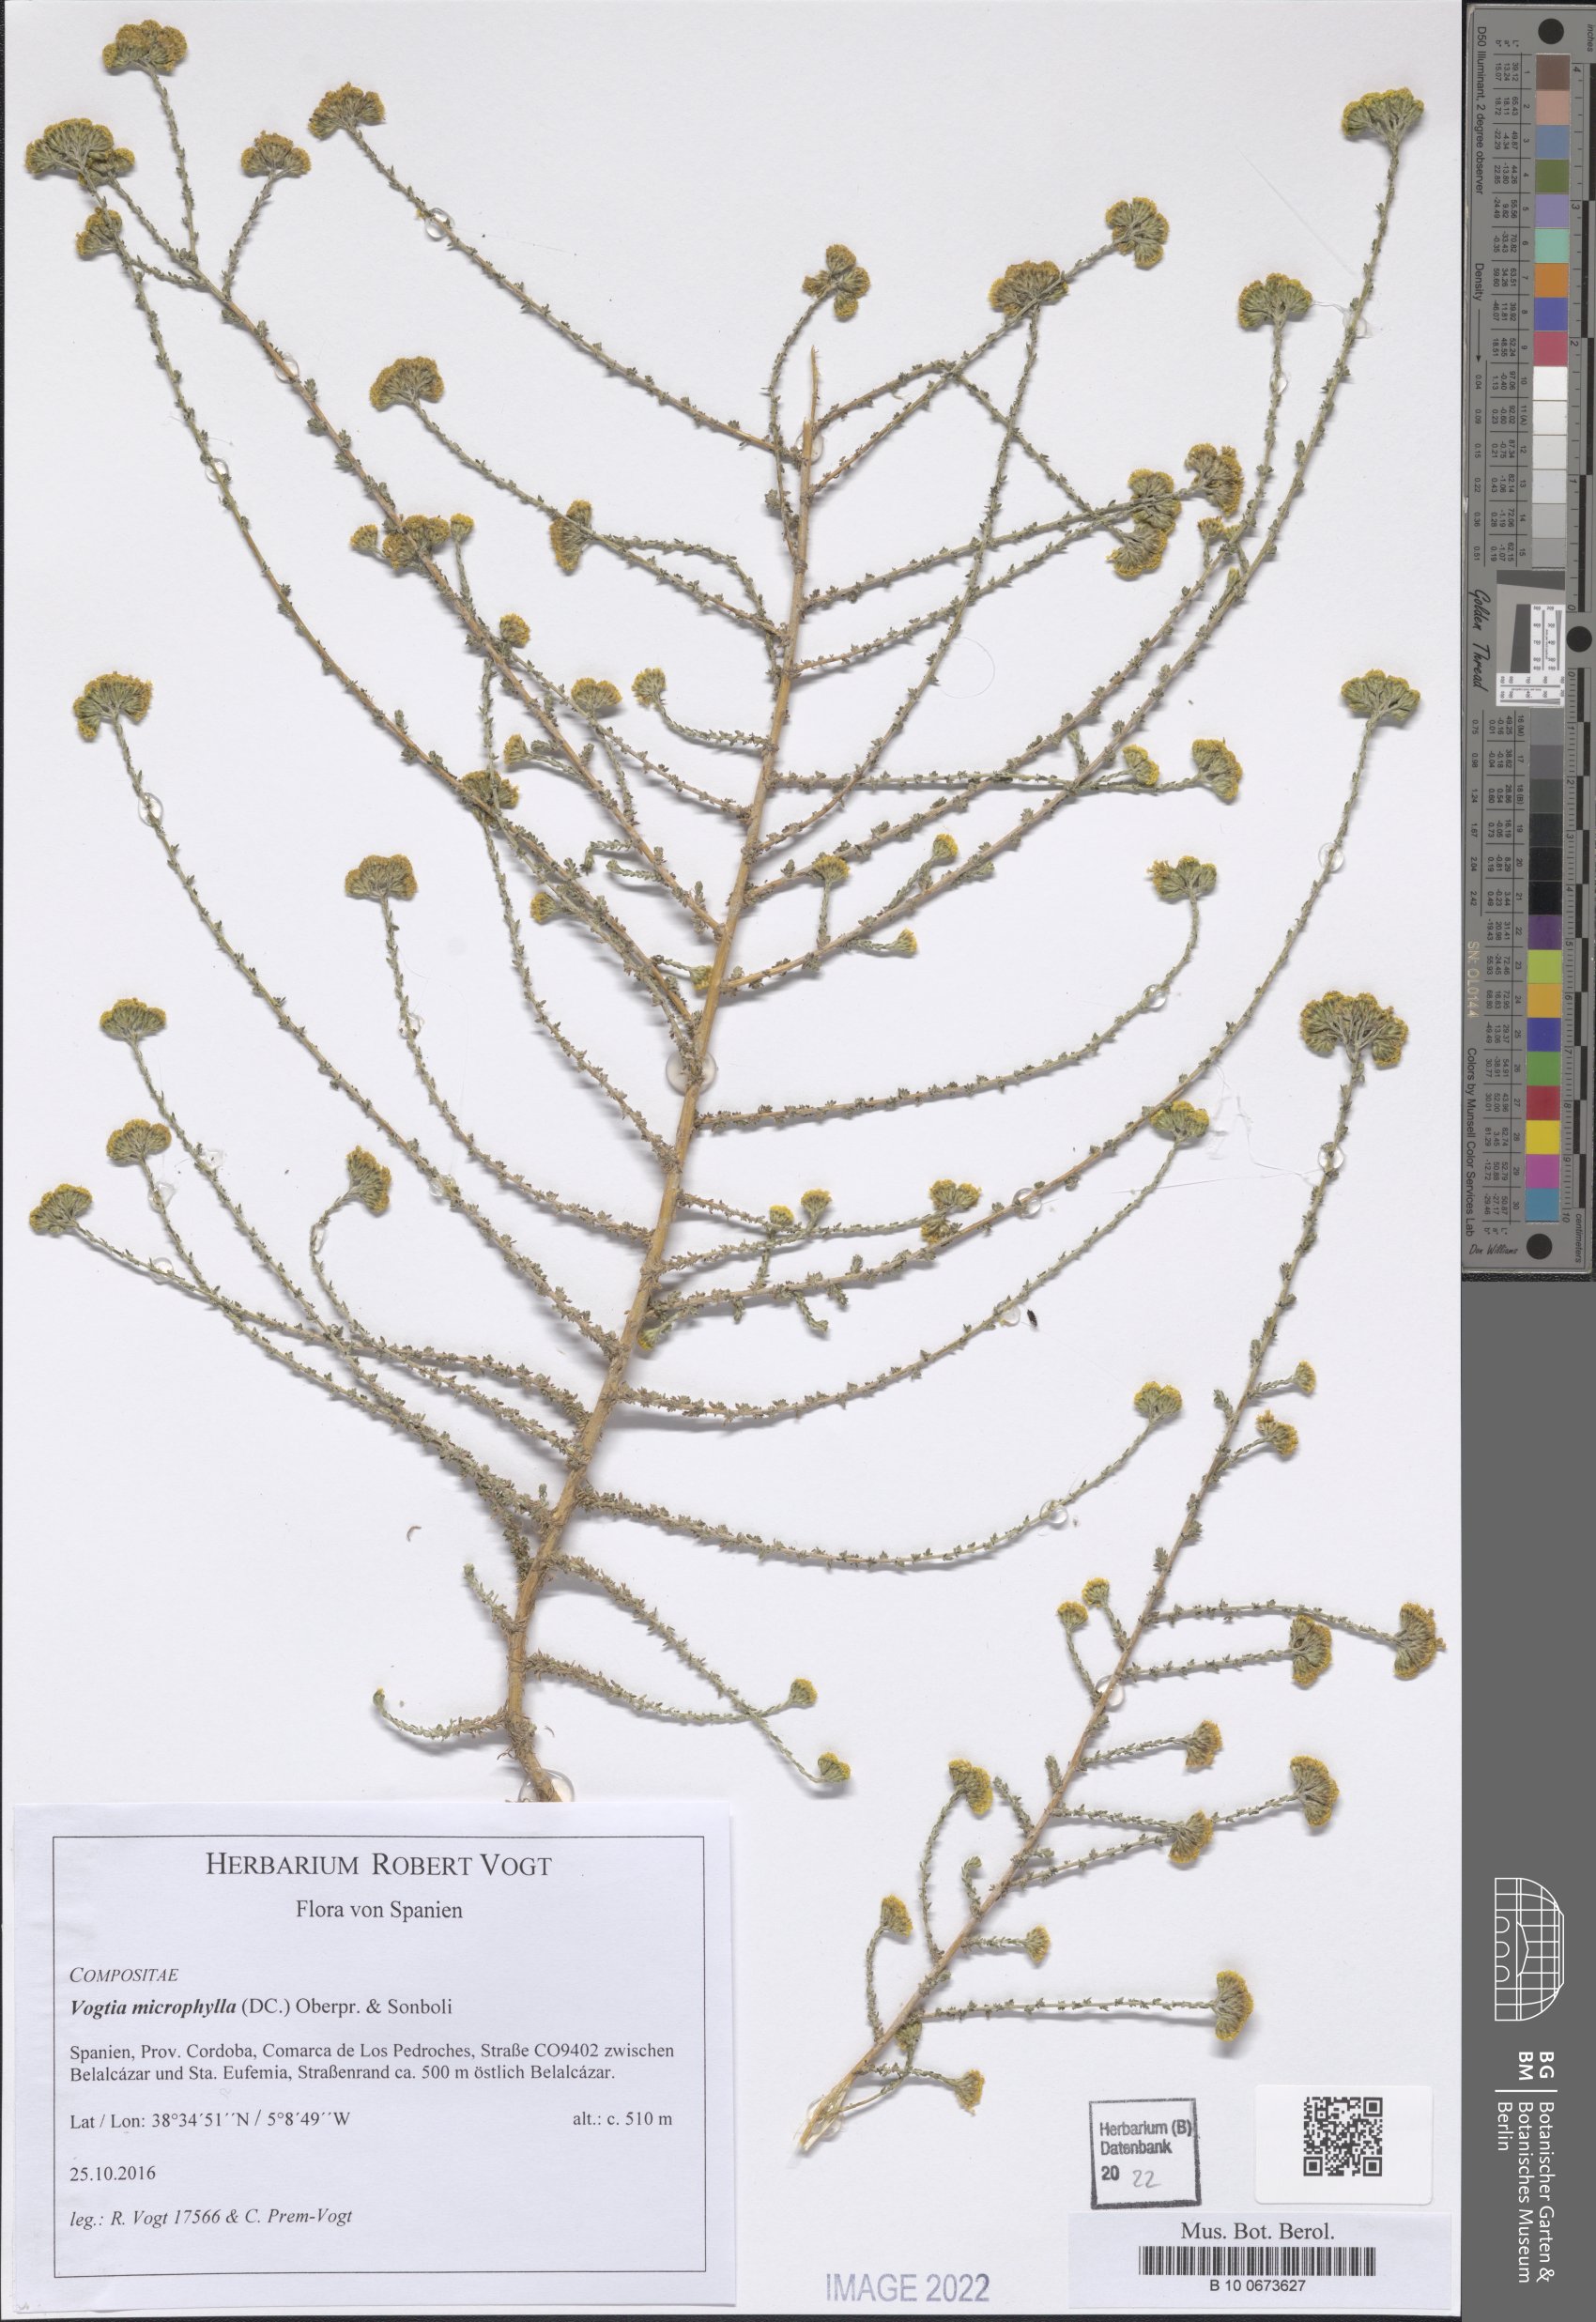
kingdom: Plantae
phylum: Tracheophyta
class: Magnoliopsida
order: Asterales
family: Asteraceae
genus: Vogtia
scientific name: Vogtia microphylla
